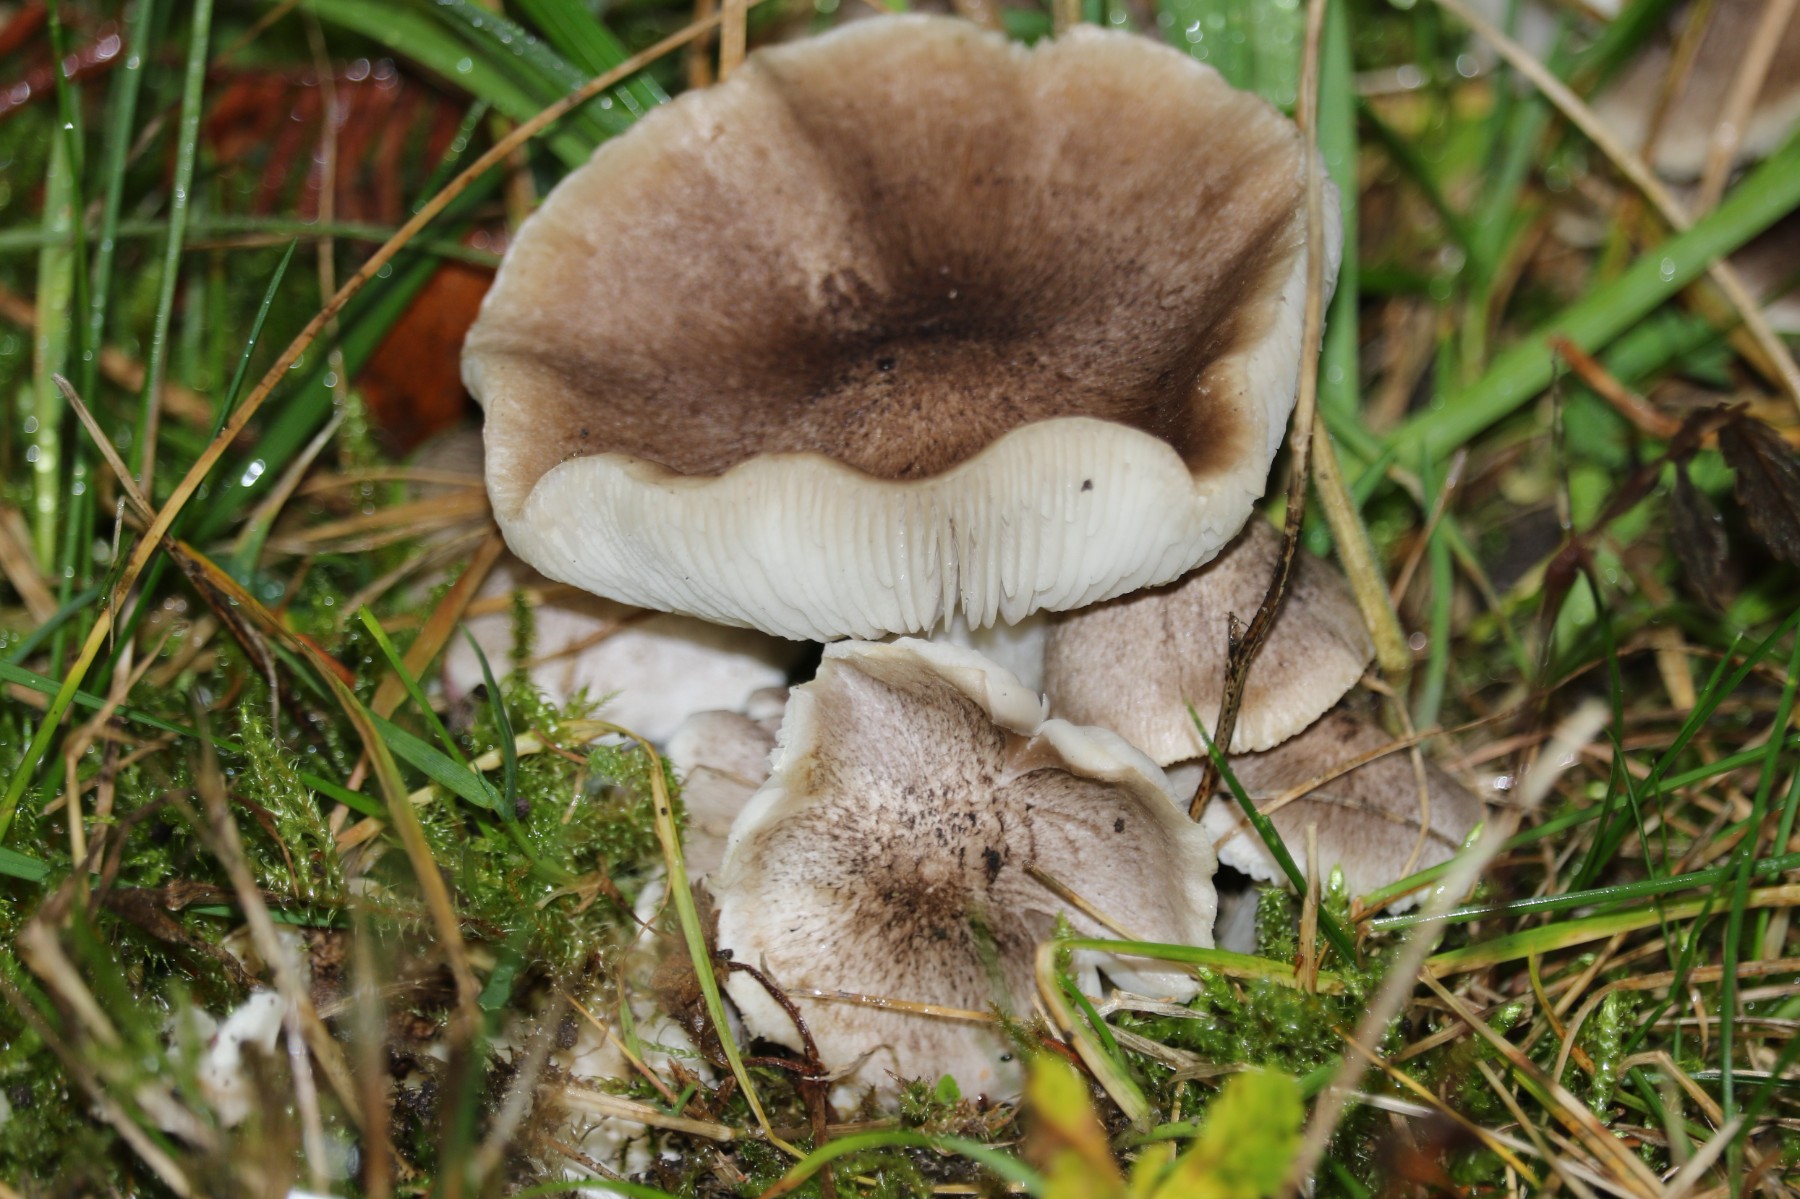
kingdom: Fungi
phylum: Basidiomycota
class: Agaricomycetes
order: Agaricales
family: Tricholomataceae
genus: Tricholoma
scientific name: Tricholoma argyraceum
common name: slør-ridderhat
